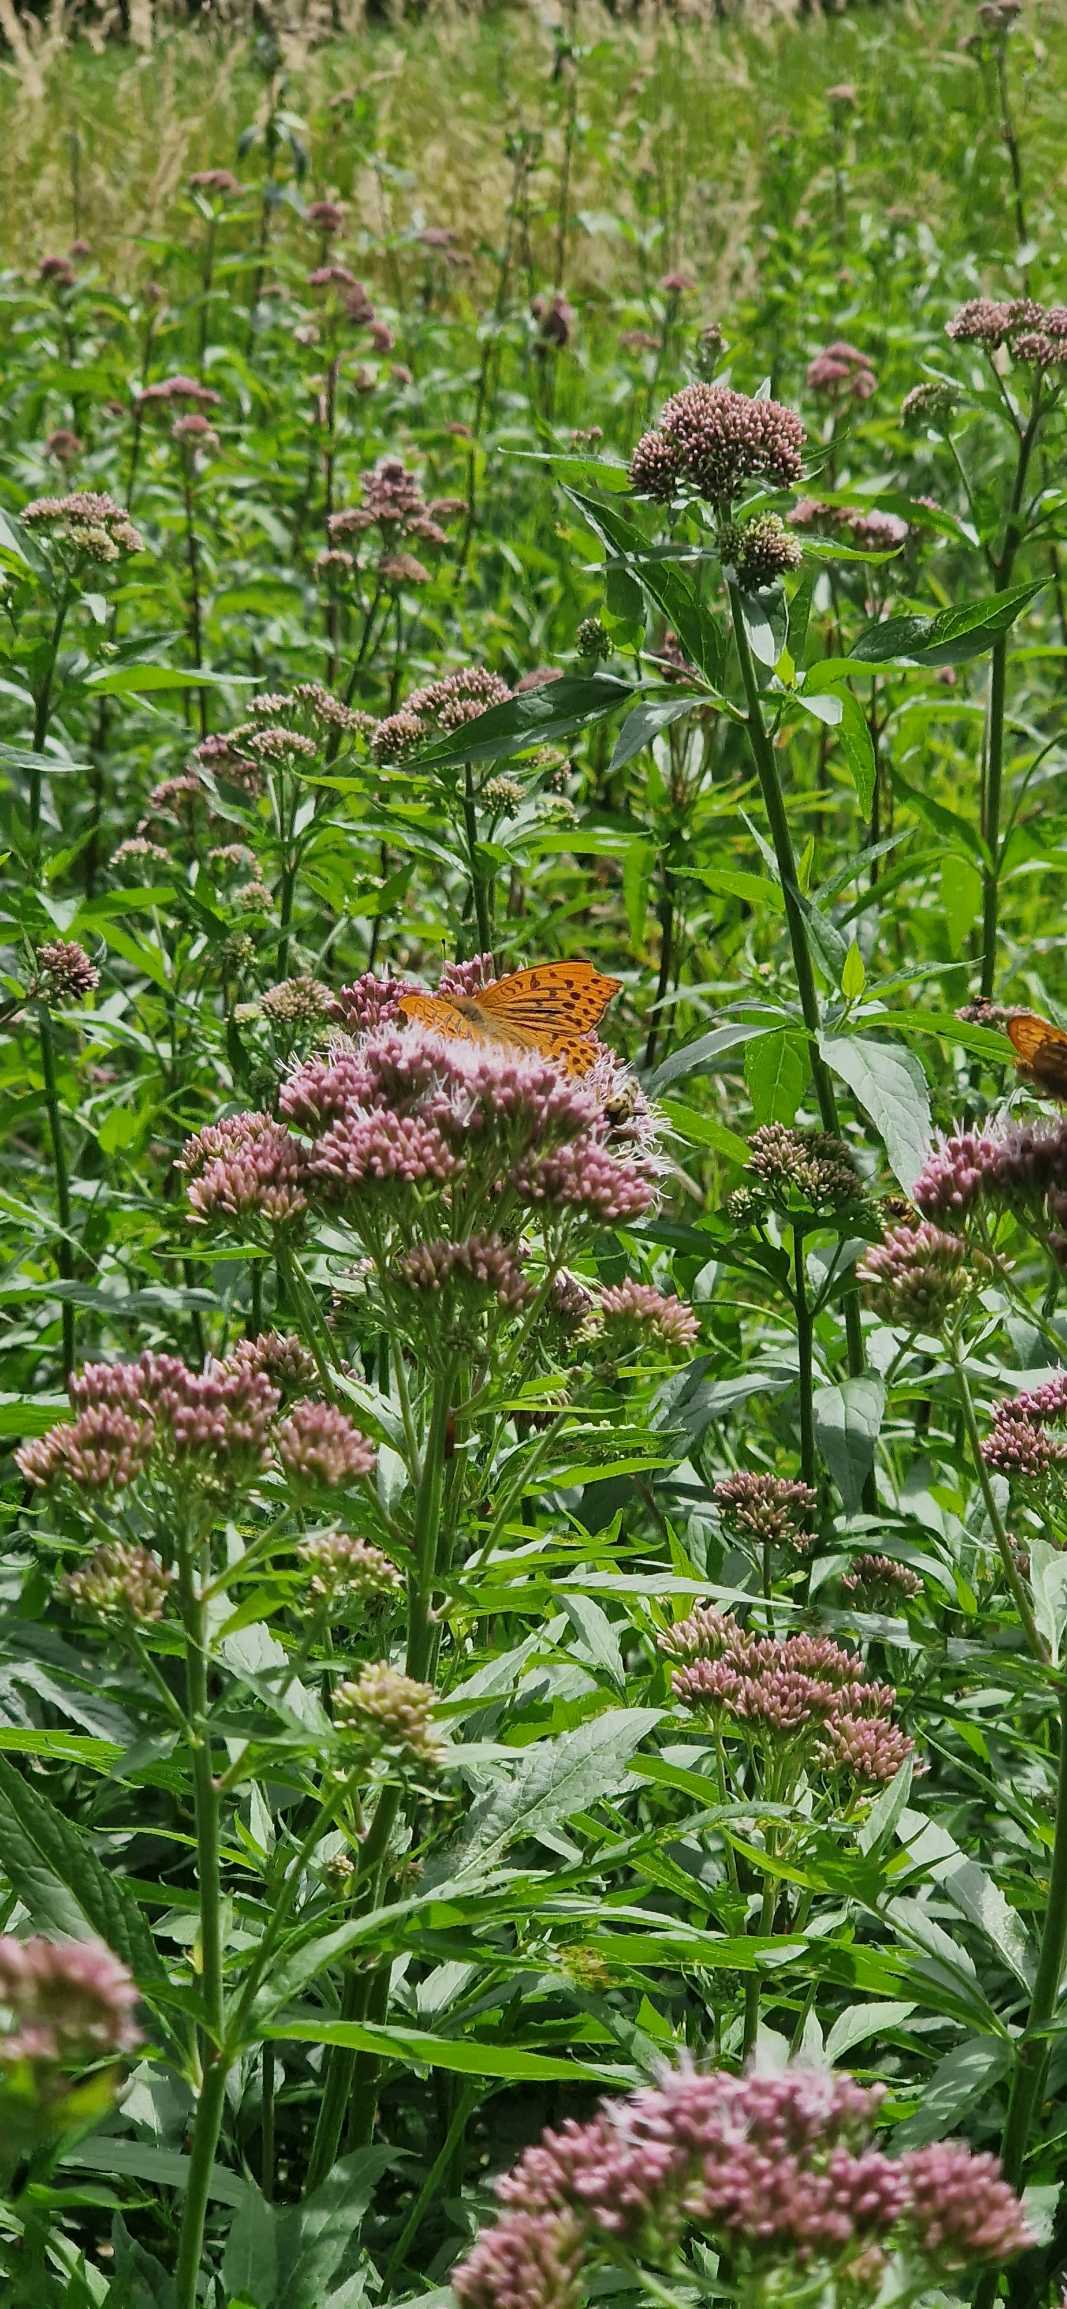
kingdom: Animalia
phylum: Arthropoda
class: Insecta
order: Lepidoptera
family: Nymphalidae
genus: Argynnis
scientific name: Argynnis paphia
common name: Kejserkåbe
